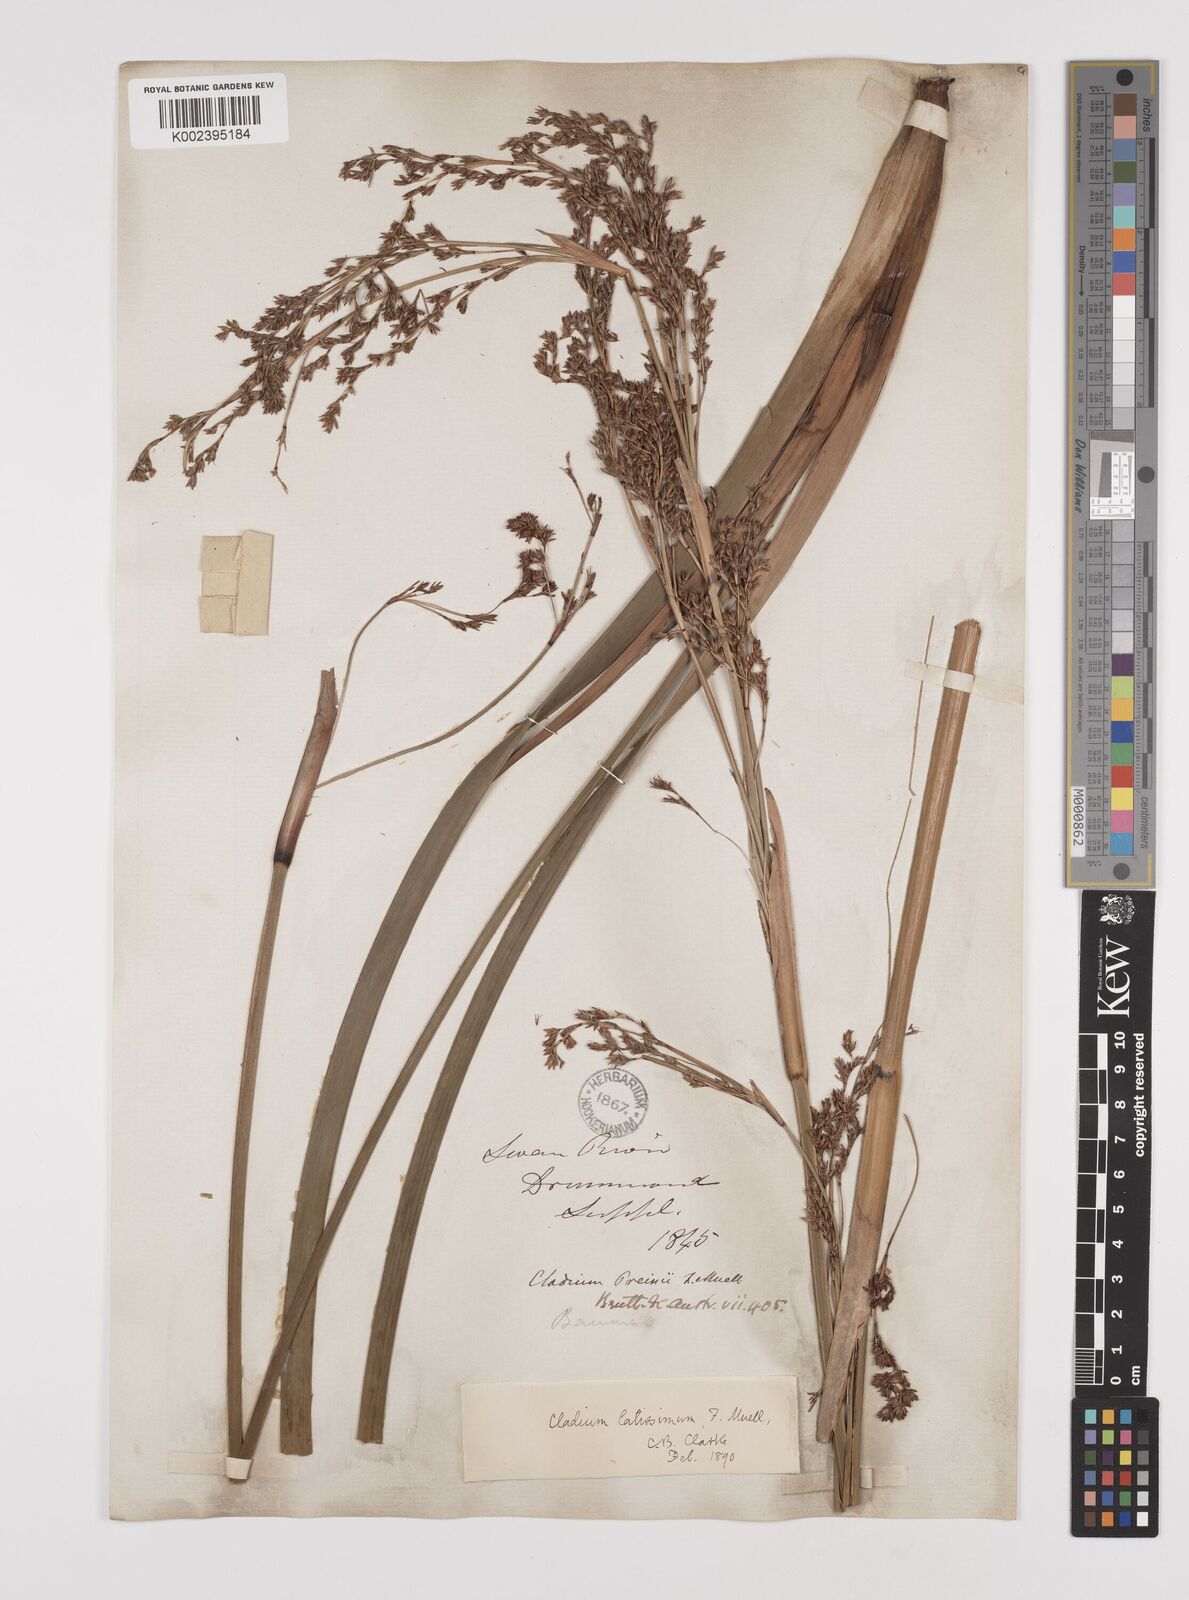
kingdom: Plantae
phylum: Tracheophyta
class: Liliopsida
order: Poales
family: Cyperaceae
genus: Machaerina
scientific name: Machaerina preissii
